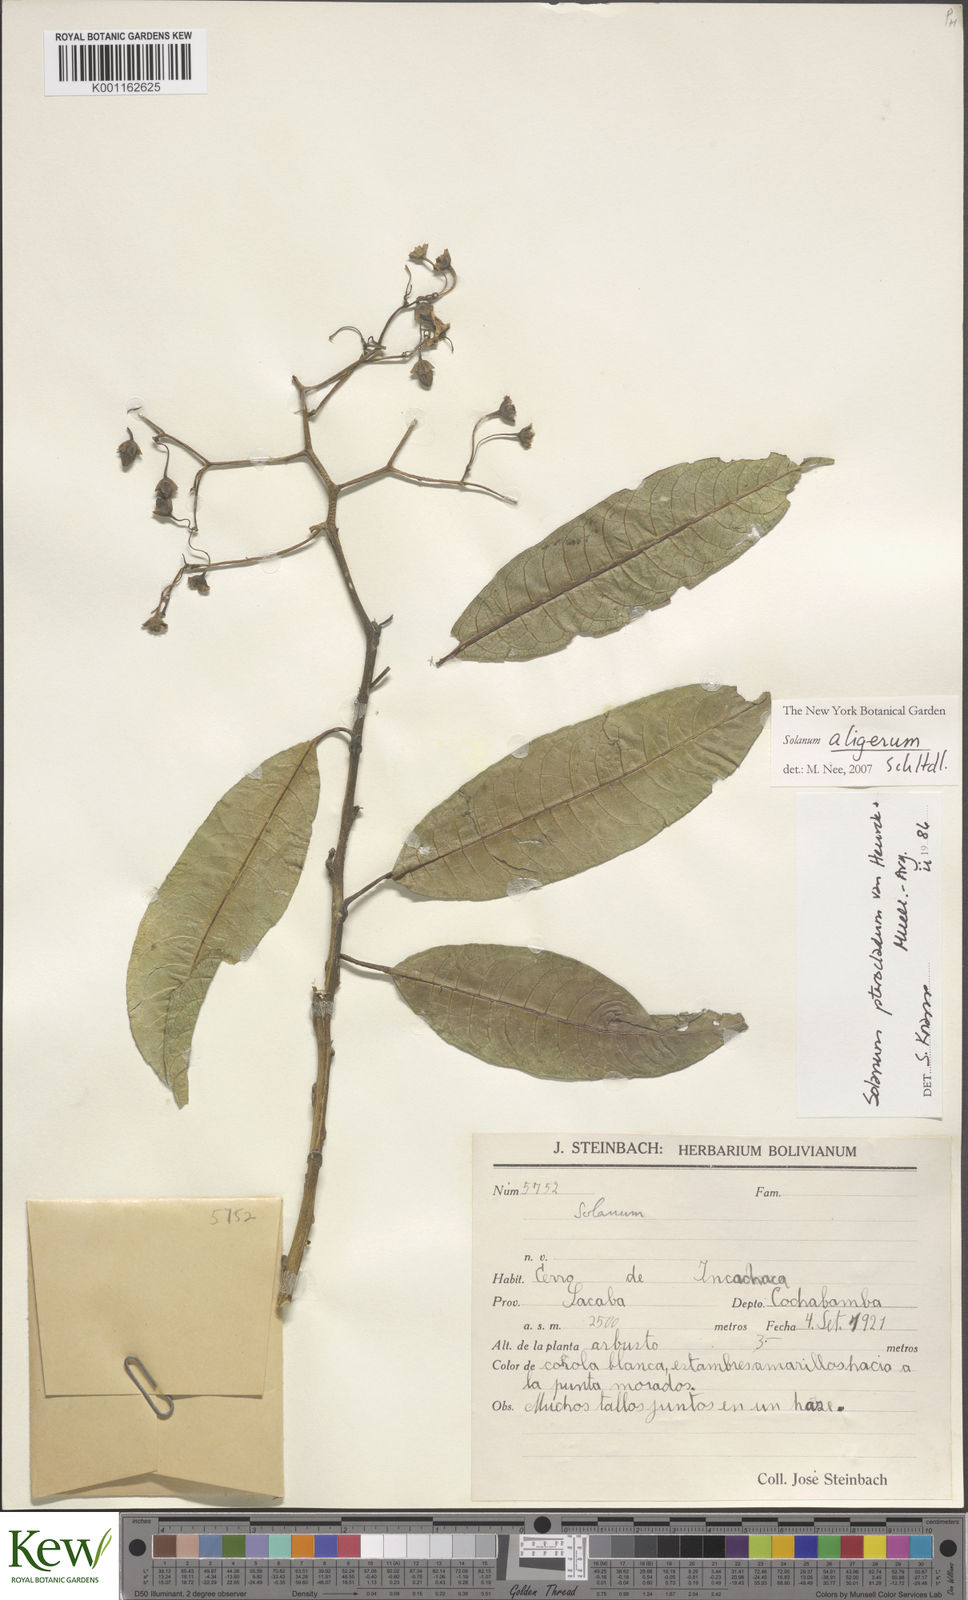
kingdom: Plantae
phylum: Tracheophyta
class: Magnoliopsida
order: Solanales
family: Solanaceae
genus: Solanum
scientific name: Solanum aligerum
